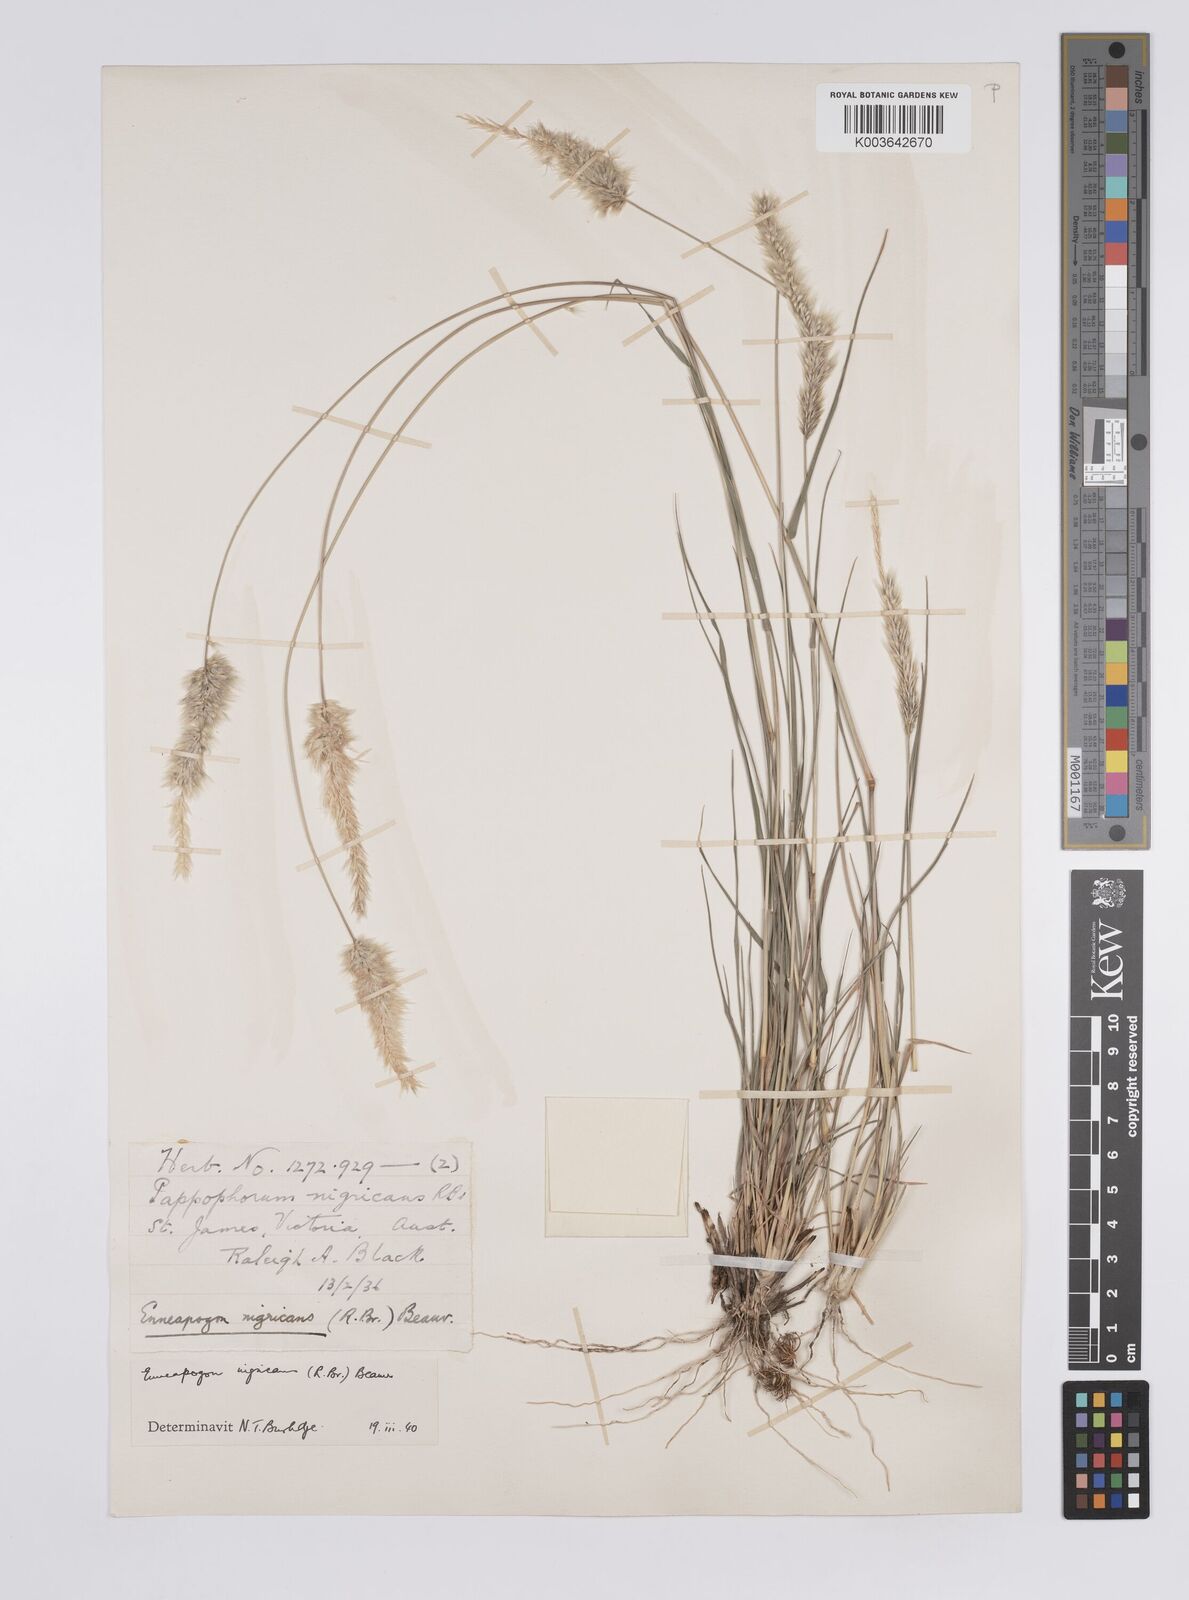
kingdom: Plantae
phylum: Tracheophyta
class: Liliopsida
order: Poales
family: Poaceae
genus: Enneapogon
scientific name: Enneapogon nigricans
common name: Pappus grass
